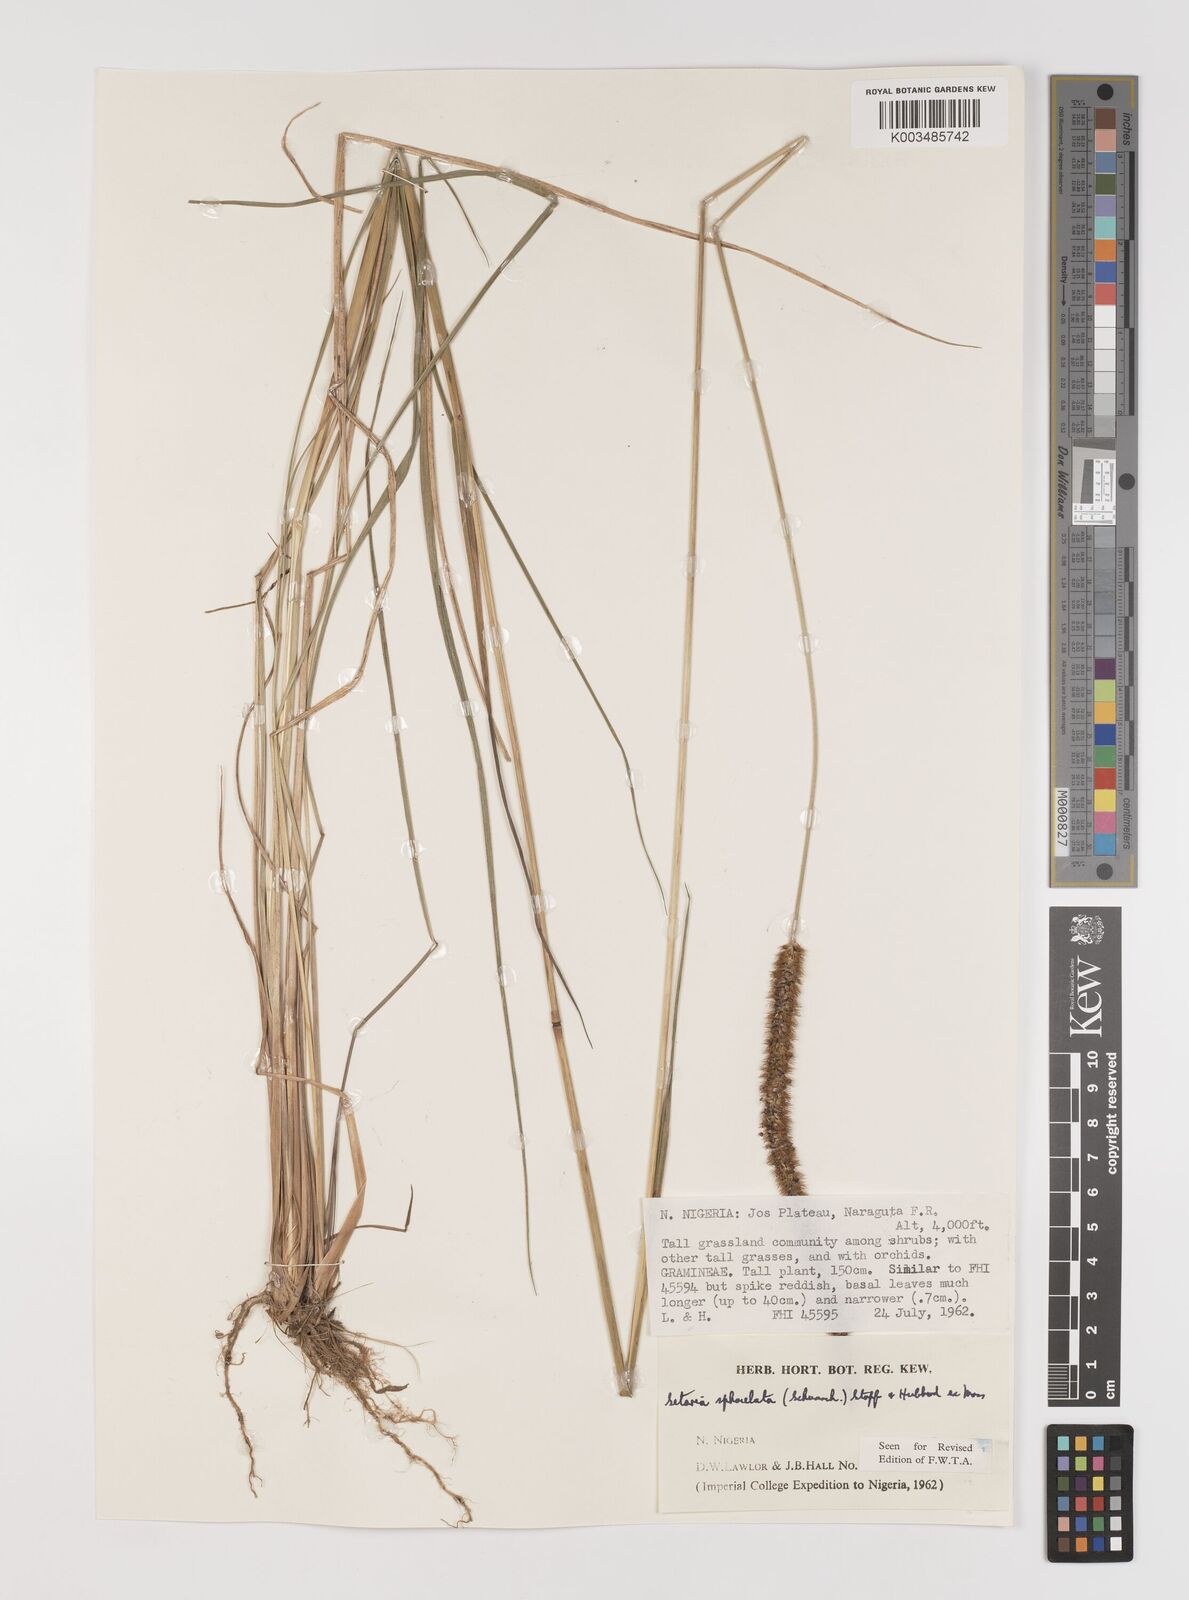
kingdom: Plantae
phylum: Tracheophyta
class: Liliopsida
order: Poales
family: Poaceae
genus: Setaria
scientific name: Setaria sphacelata
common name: African bristlegrass
